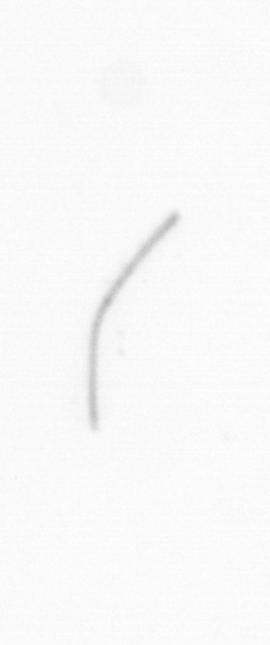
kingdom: Chromista
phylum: Ochrophyta
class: Bacillariophyceae
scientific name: Bacillariophyceae
